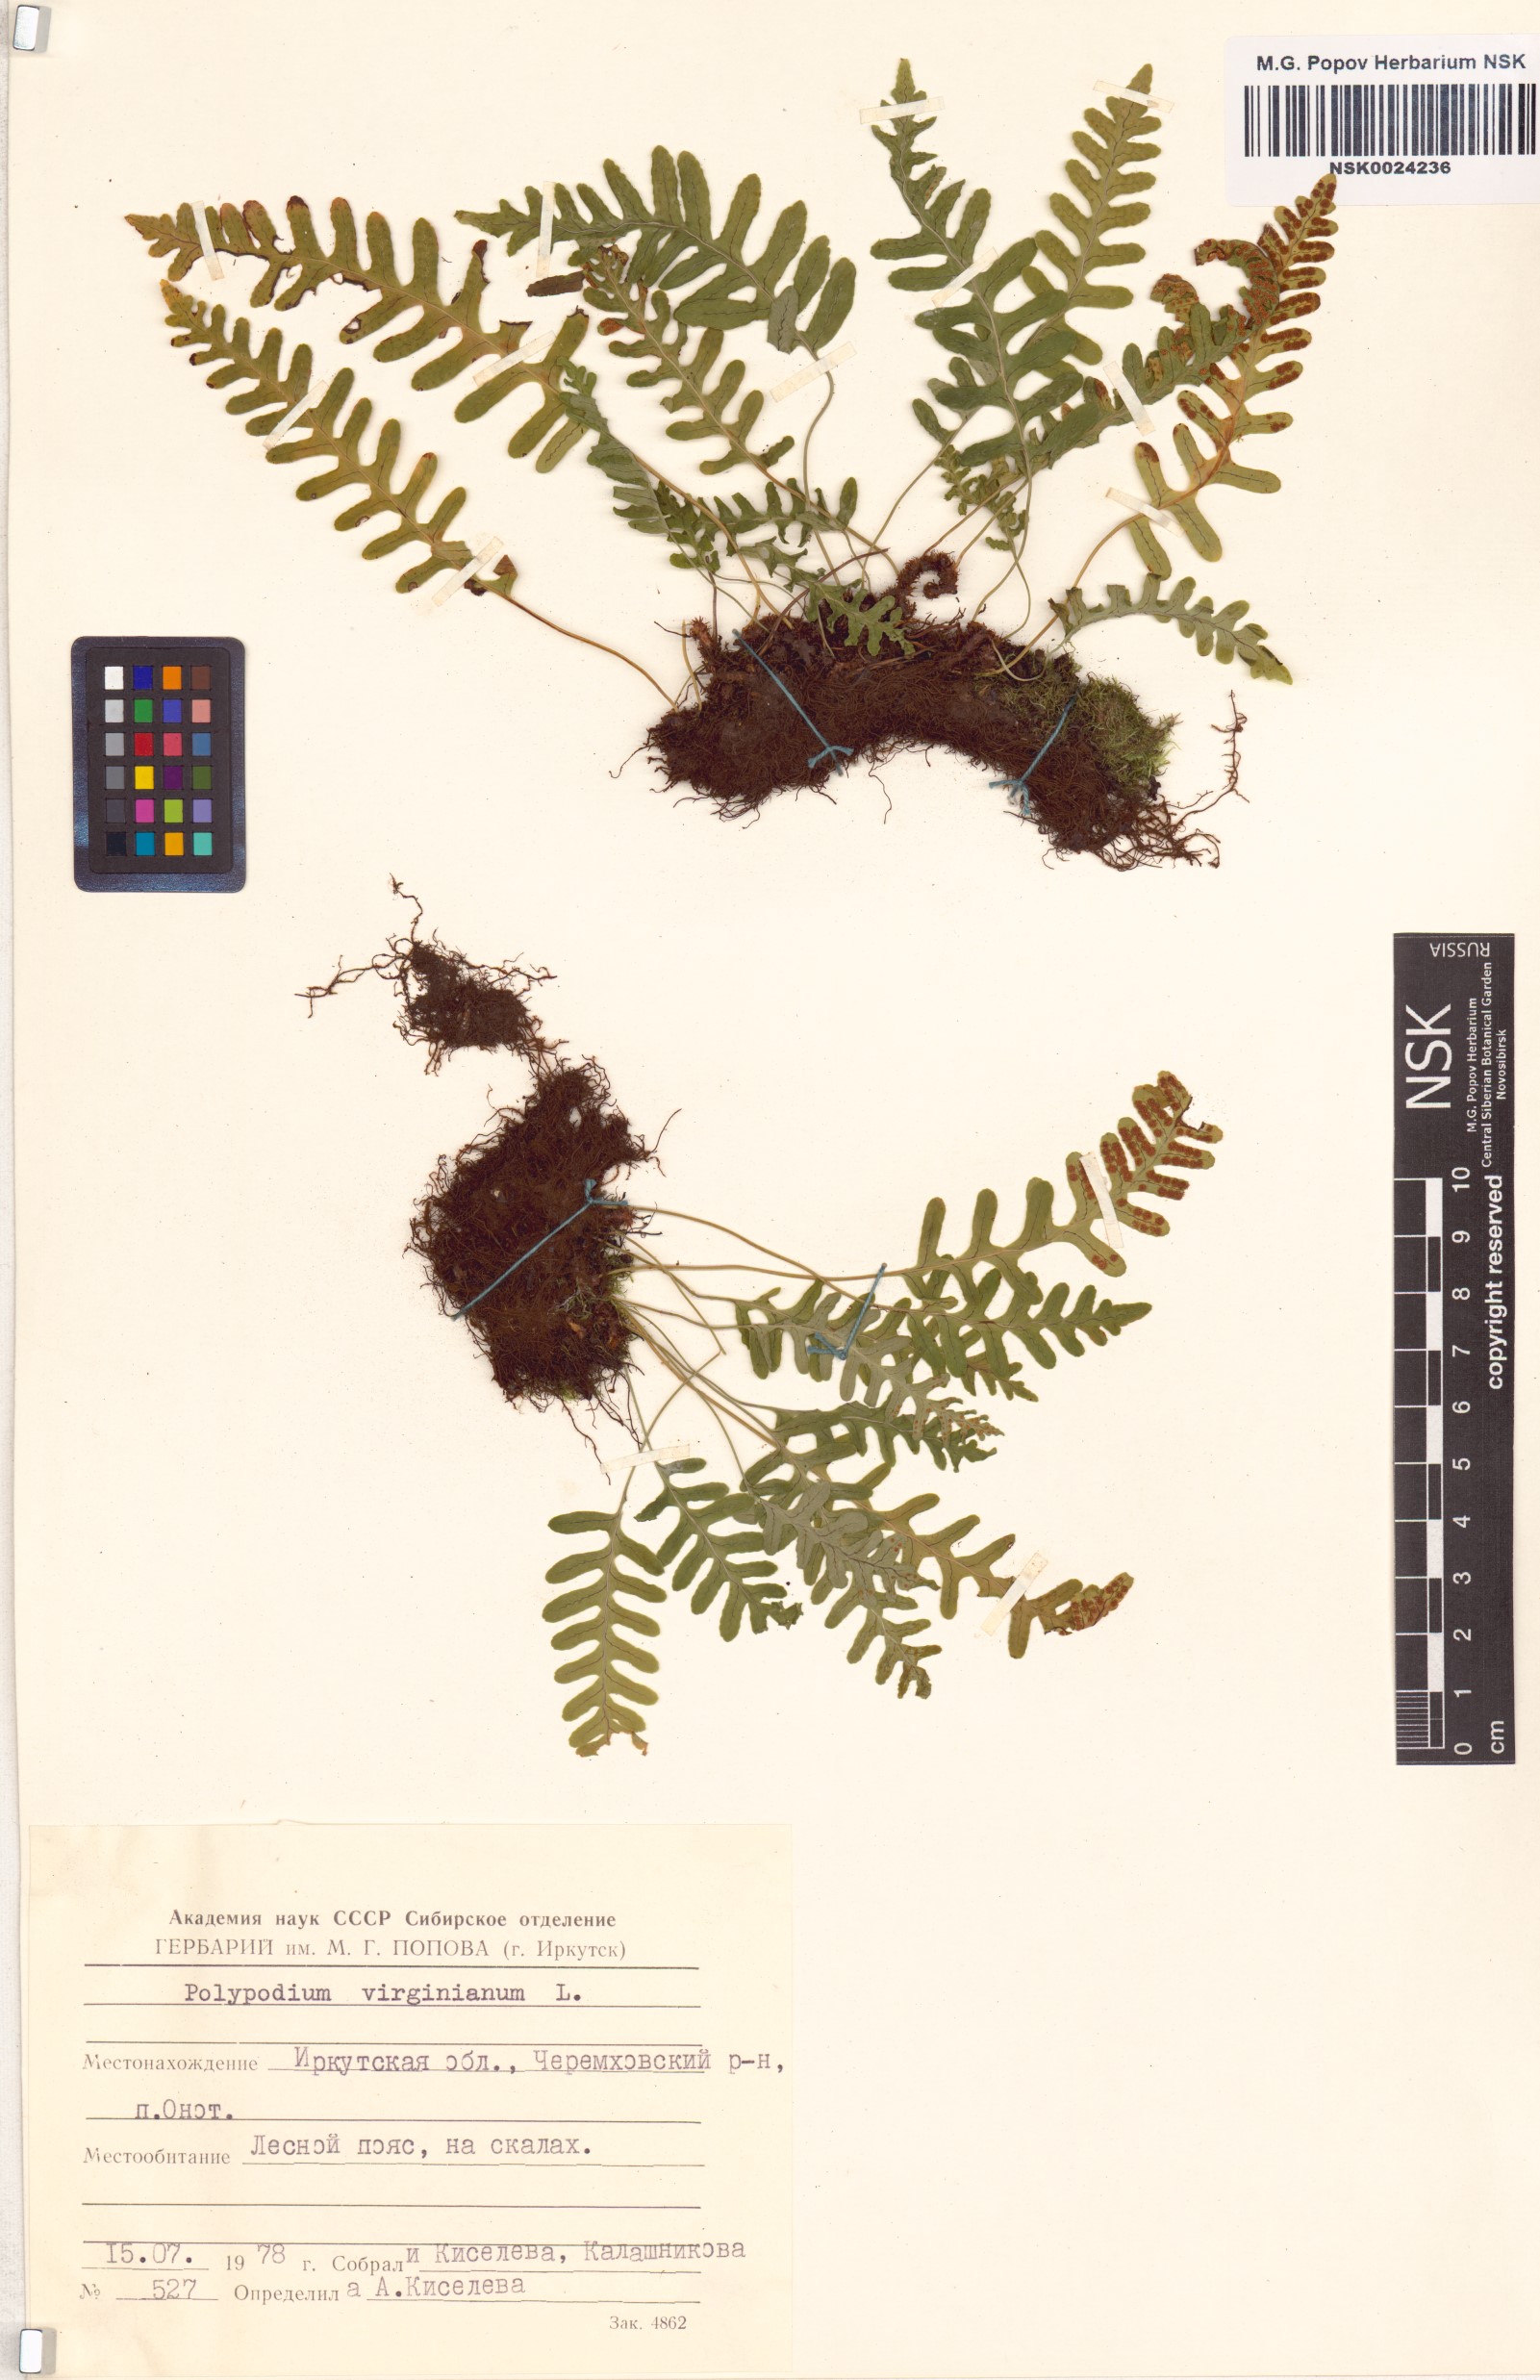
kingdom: Plantae
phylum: Tracheophyta
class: Polypodiopsida
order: Polypodiales
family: Polypodiaceae
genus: Polypodium
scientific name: Polypodium virginianum
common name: American wall fern
